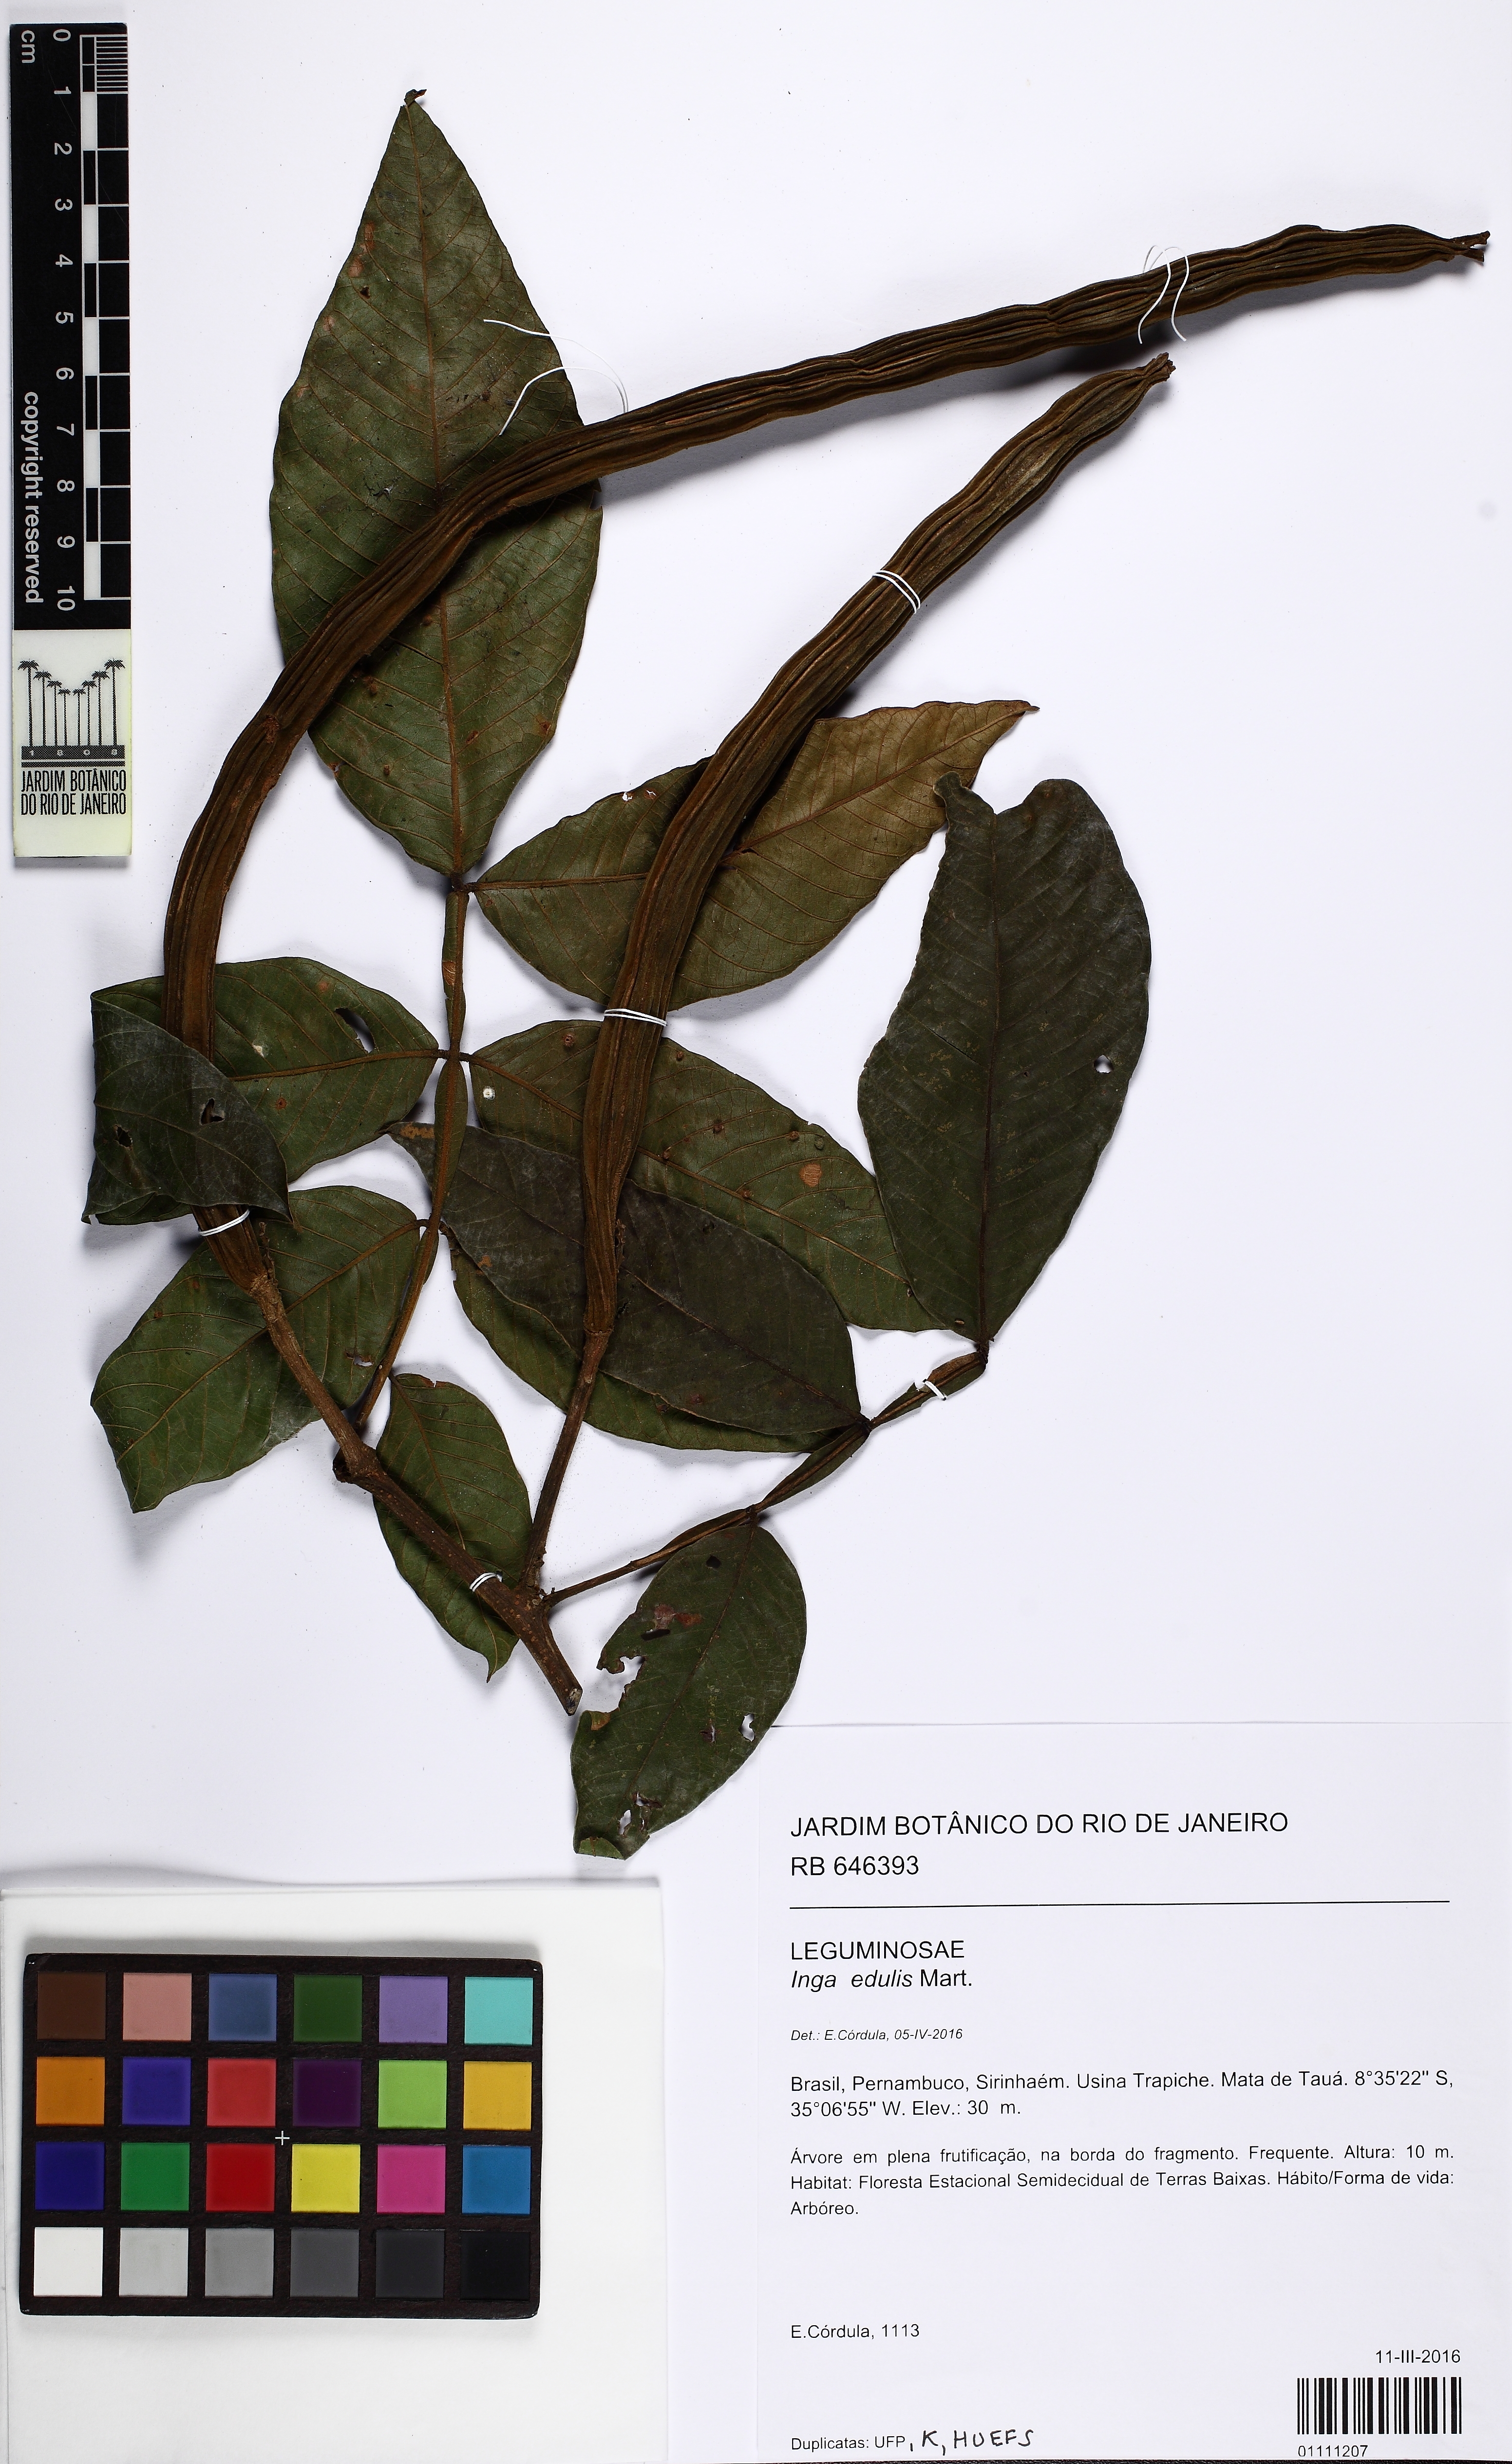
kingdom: Plantae
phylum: Tracheophyta
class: Magnoliopsida
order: Fabales
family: Fabaceae
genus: Inga
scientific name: Inga edulis
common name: Ice cream bean
